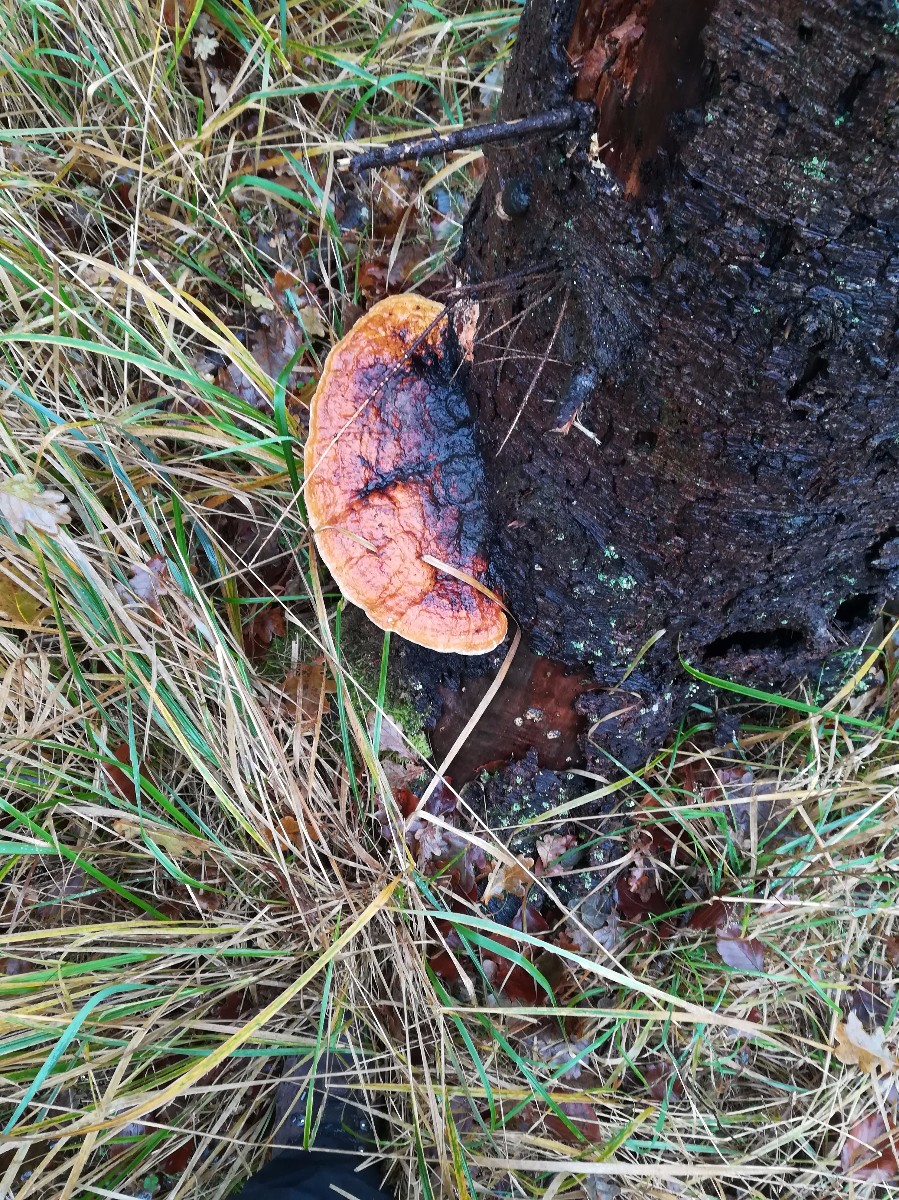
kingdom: Fungi
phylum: Basidiomycota
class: Agaricomycetes
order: Polyporales
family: Fomitopsidaceae
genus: Fomitopsis
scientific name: Fomitopsis pinicola
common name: randbæltet hovporesvamp
